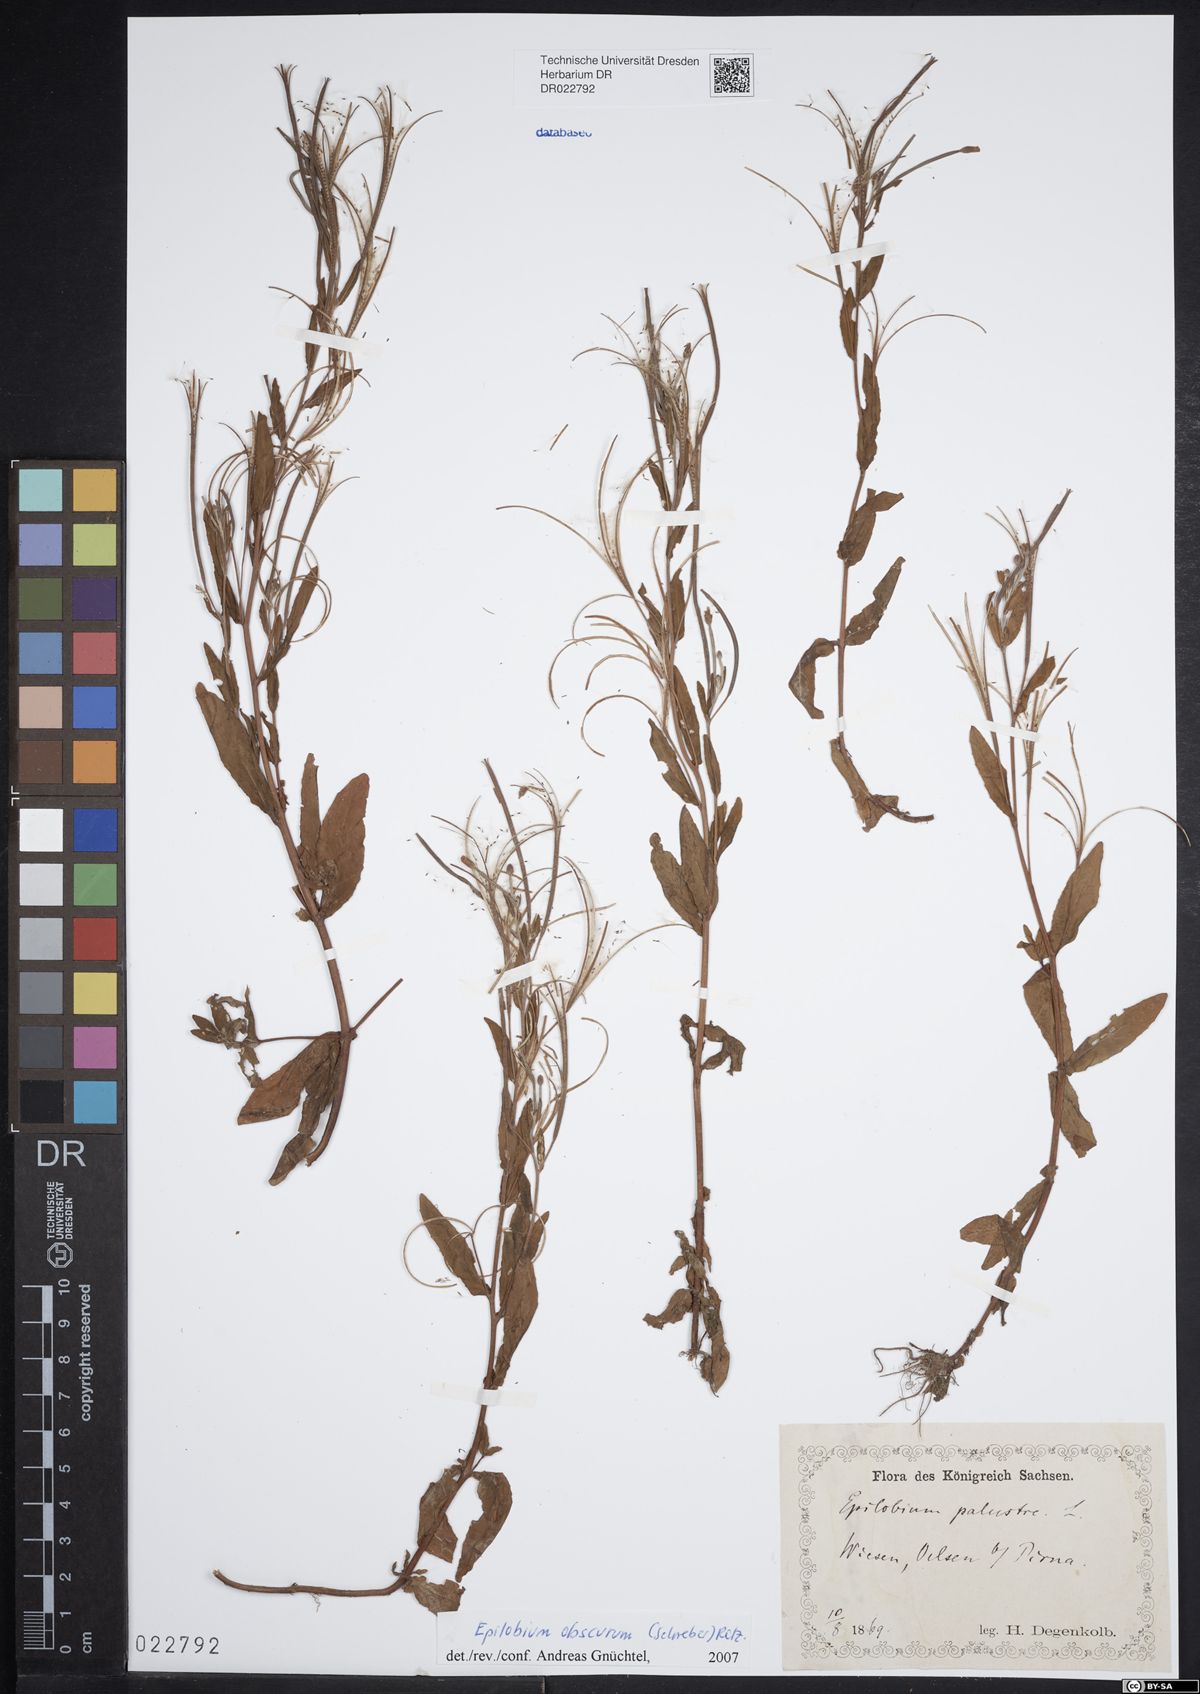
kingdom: Plantae
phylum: Tracheophyta
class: Magnoliopsida
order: Myrtales
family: Onagraceae
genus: Epilobium
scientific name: Epilobium palustre
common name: Marsh willowherb
